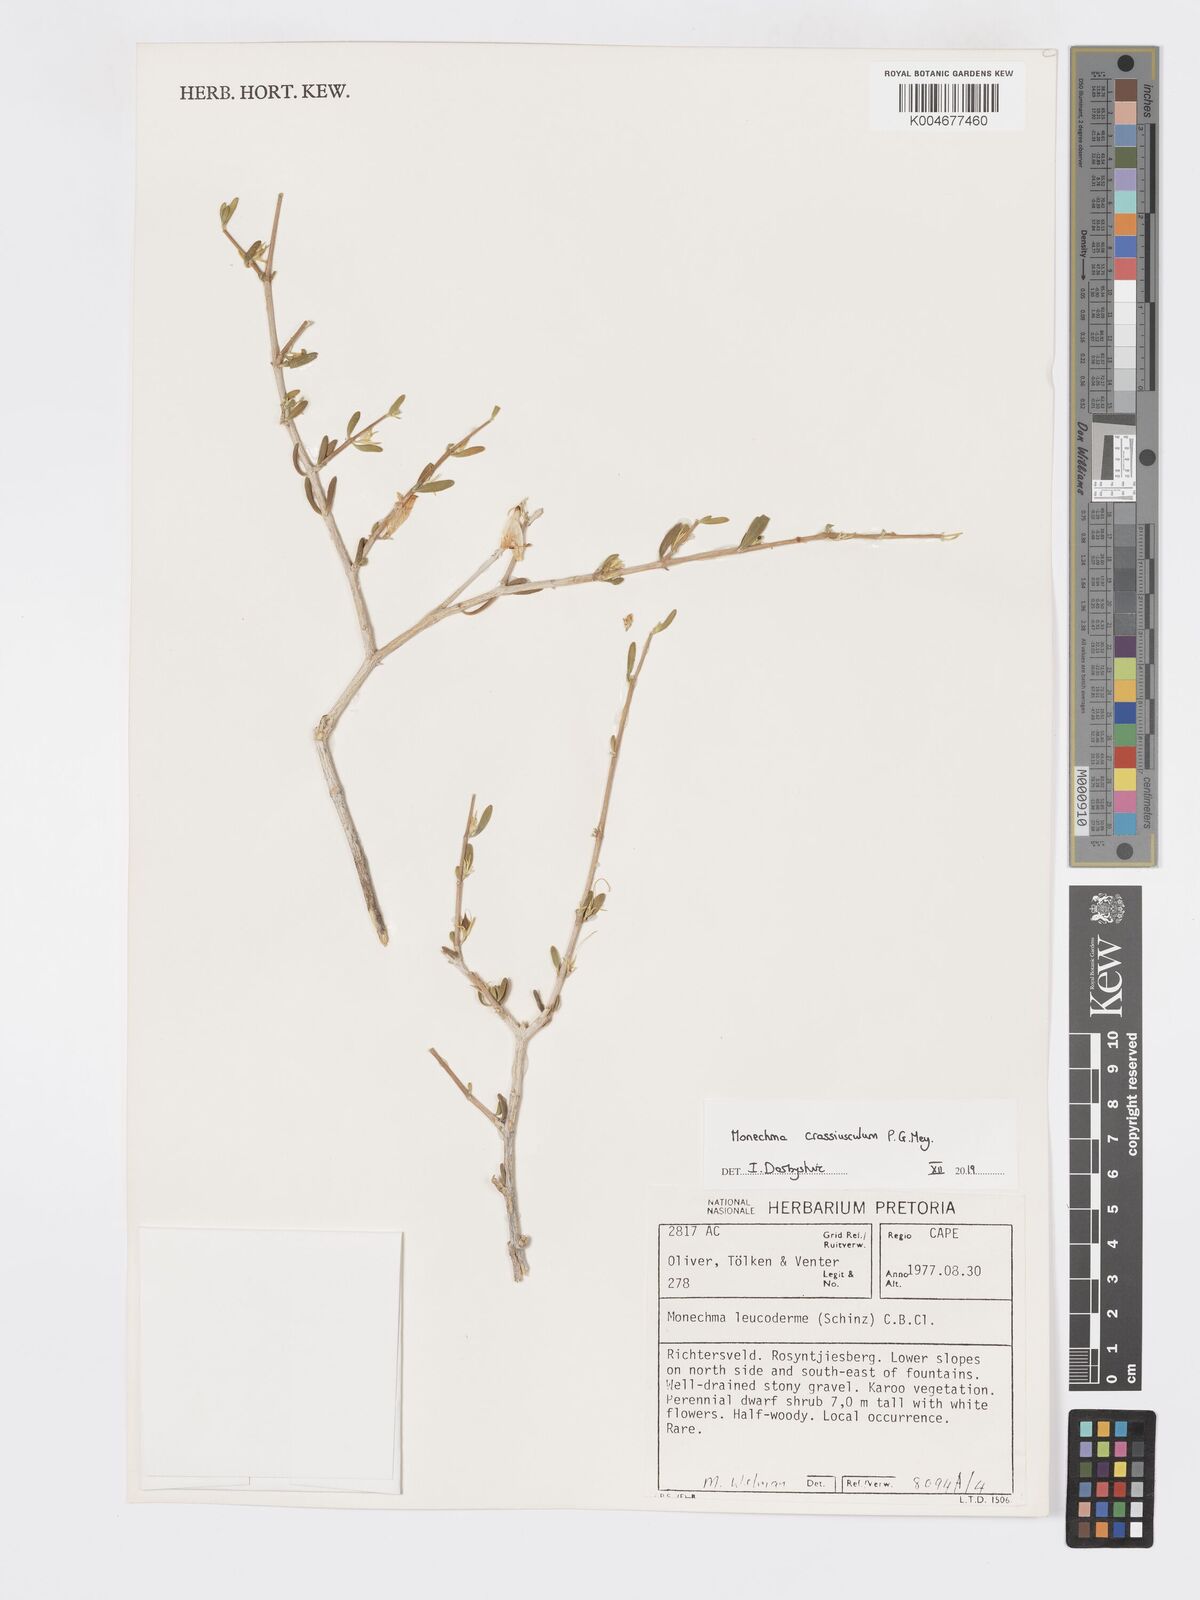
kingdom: Plantae
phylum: Tracheophyta
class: Magnoliopsida
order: Lamiales
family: Acanthaceae
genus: Pogonospermum
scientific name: Pogonospermum
